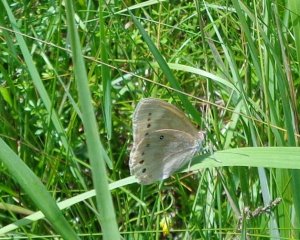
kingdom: Animalia
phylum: Arthropoda
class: Insecta
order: Lepidoptera
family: Nymphalidae
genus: Lethe
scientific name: Lethe eurydice
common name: Eyed Brown
